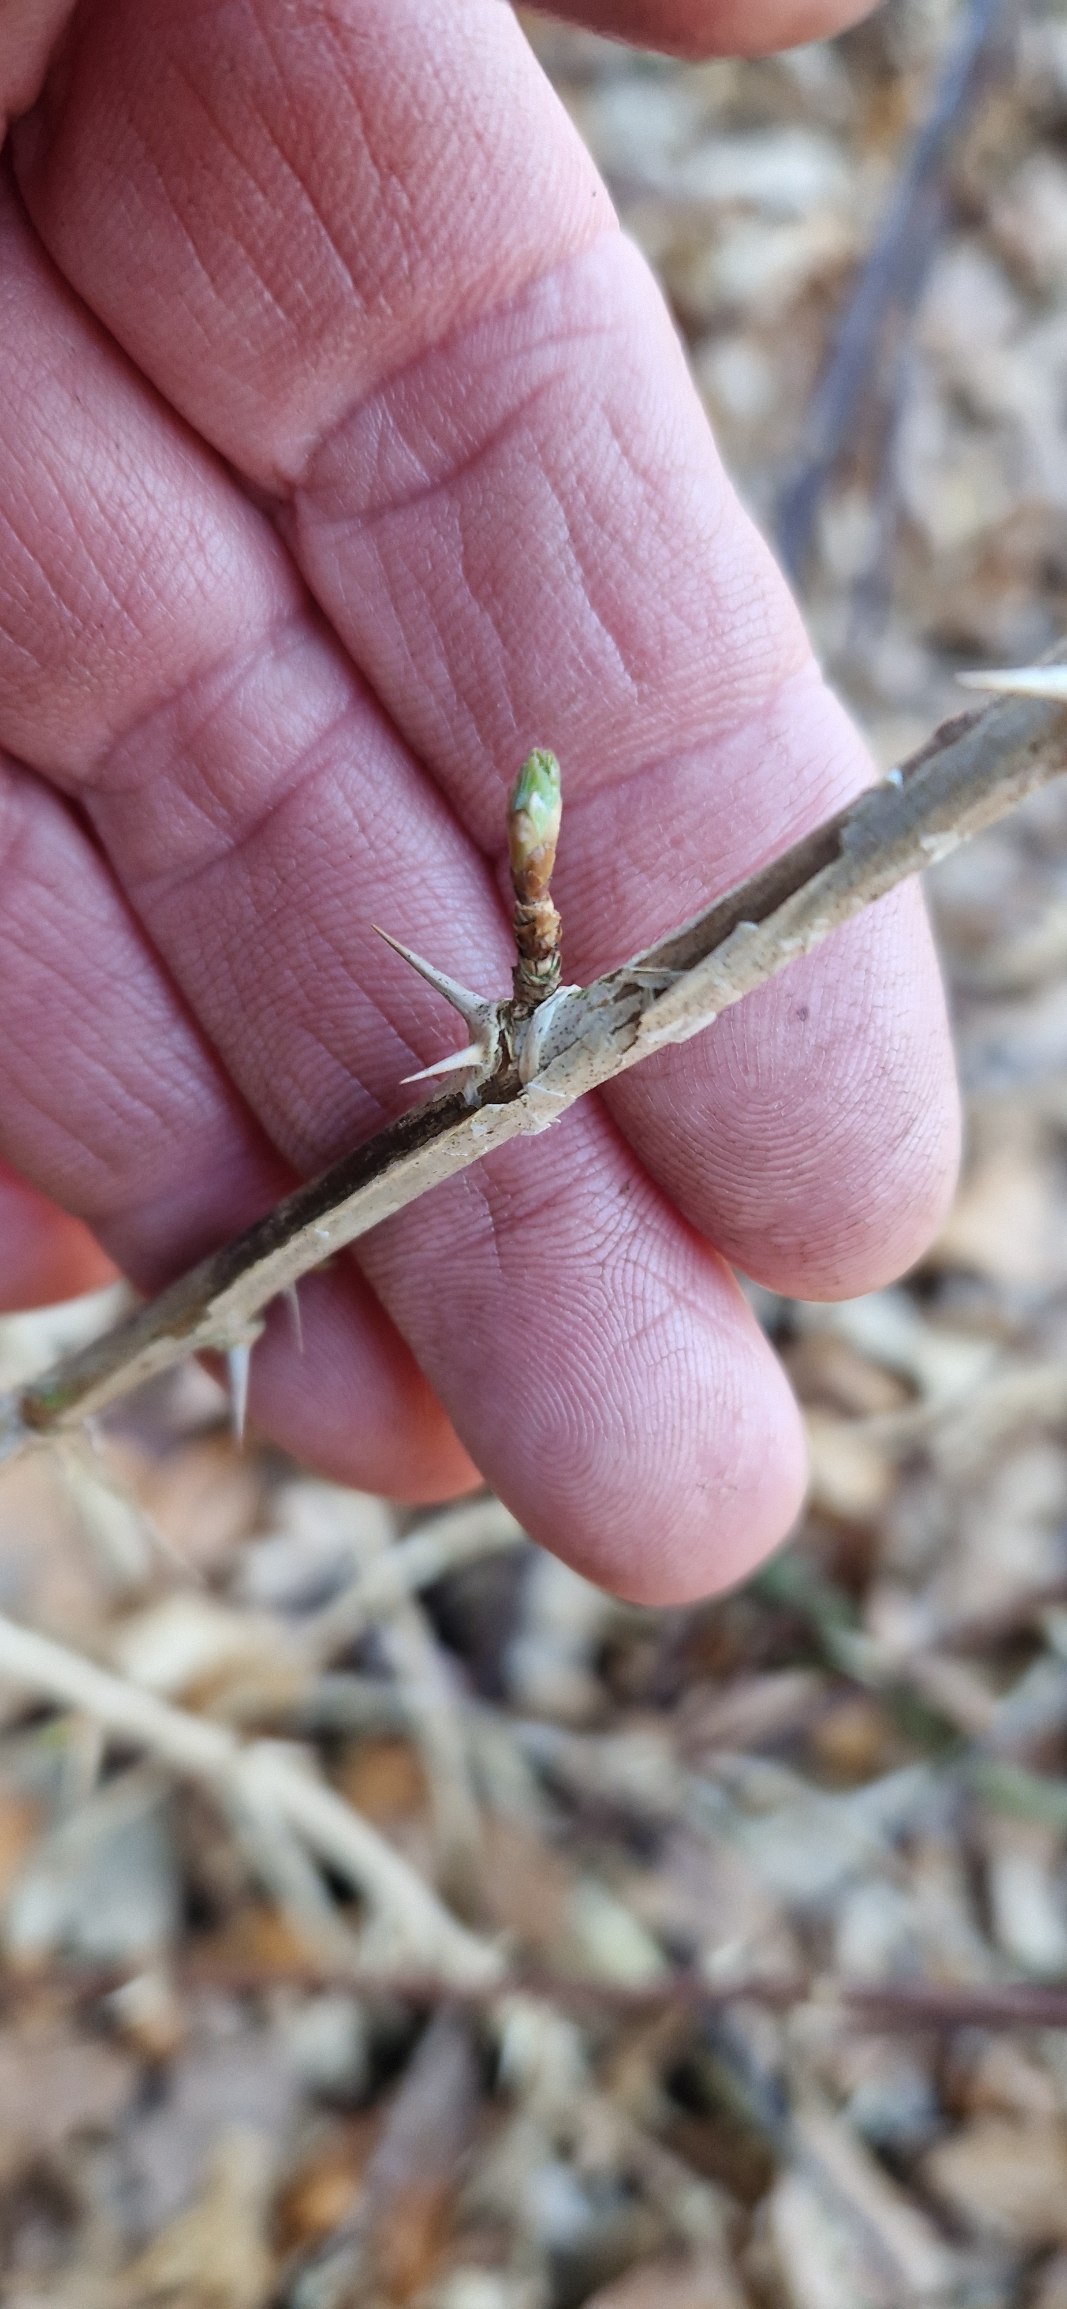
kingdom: Plantae
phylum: Tracheophyta
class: Magnoliopsida
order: Saxifragales
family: Grossulariaceae
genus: Ribes
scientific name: Ribes uva-crispa
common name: Stikkelsbær
